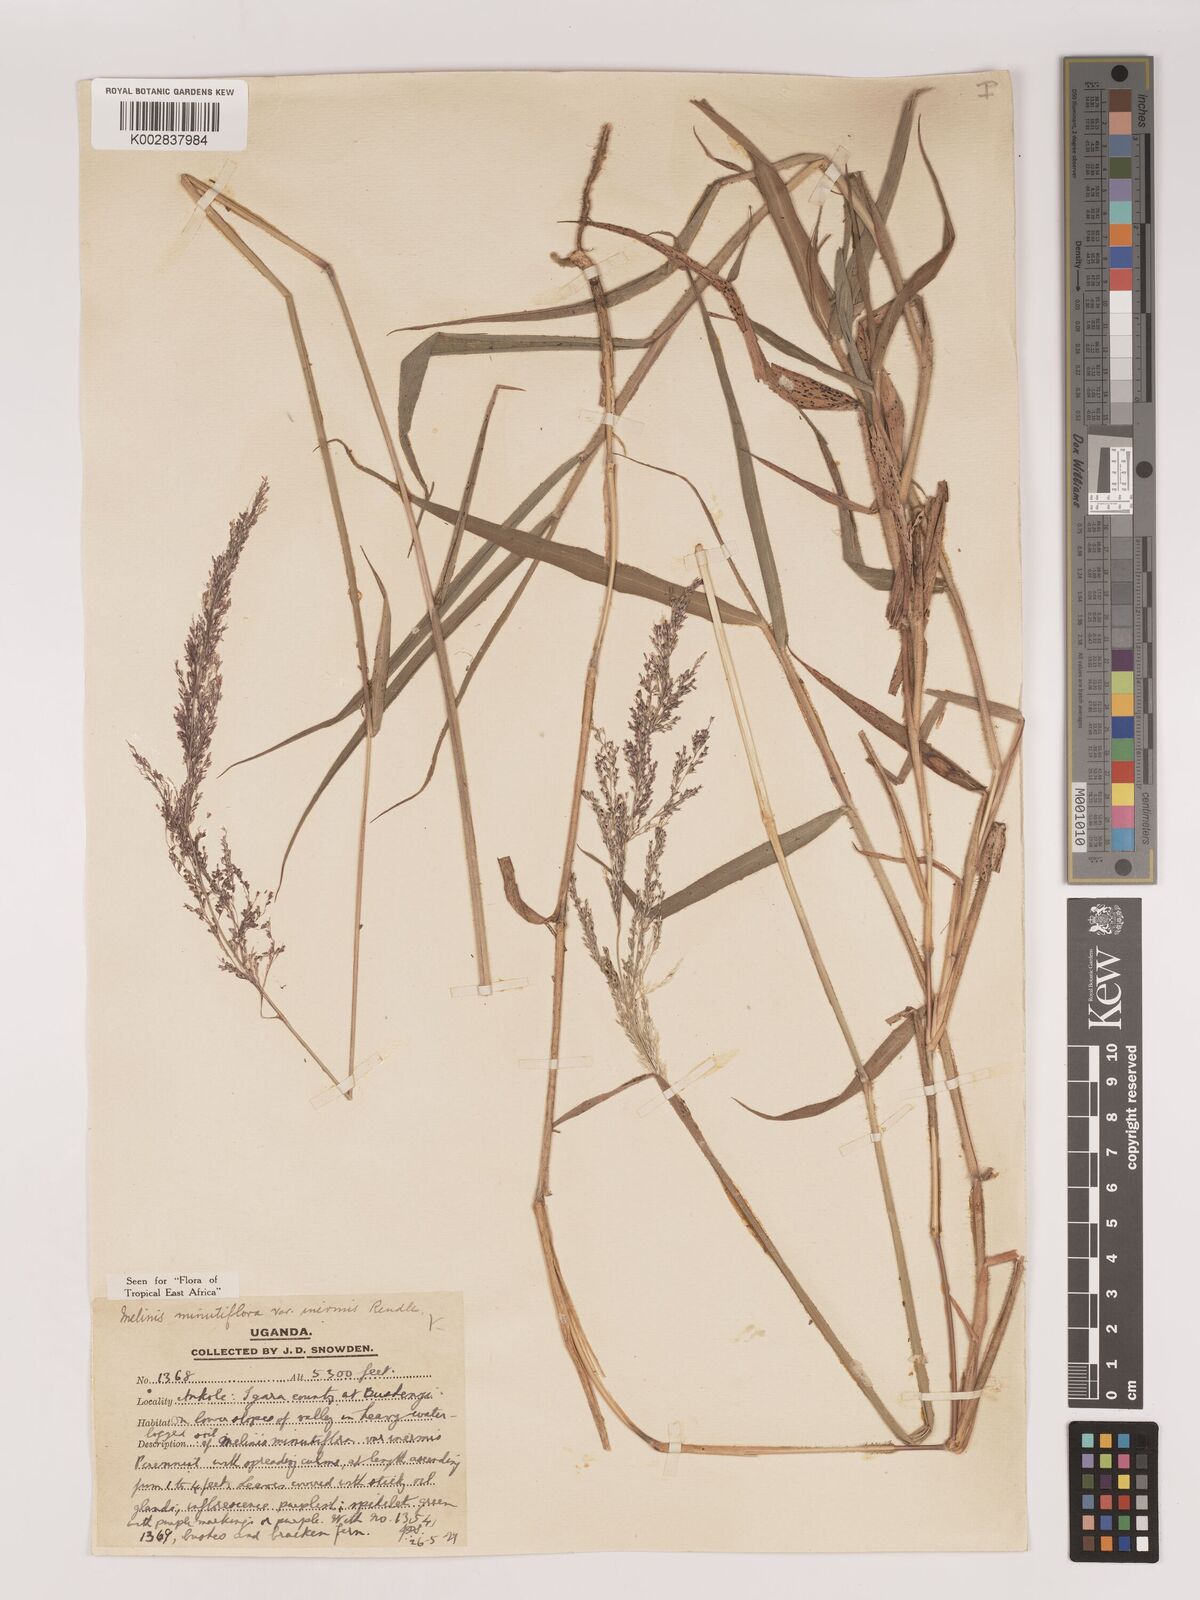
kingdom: Plantae
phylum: Tracheophyta
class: Liliopsida
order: Poales
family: Poaceae
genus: Melinis
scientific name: Melinis minutiflora
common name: Molassesgrass
